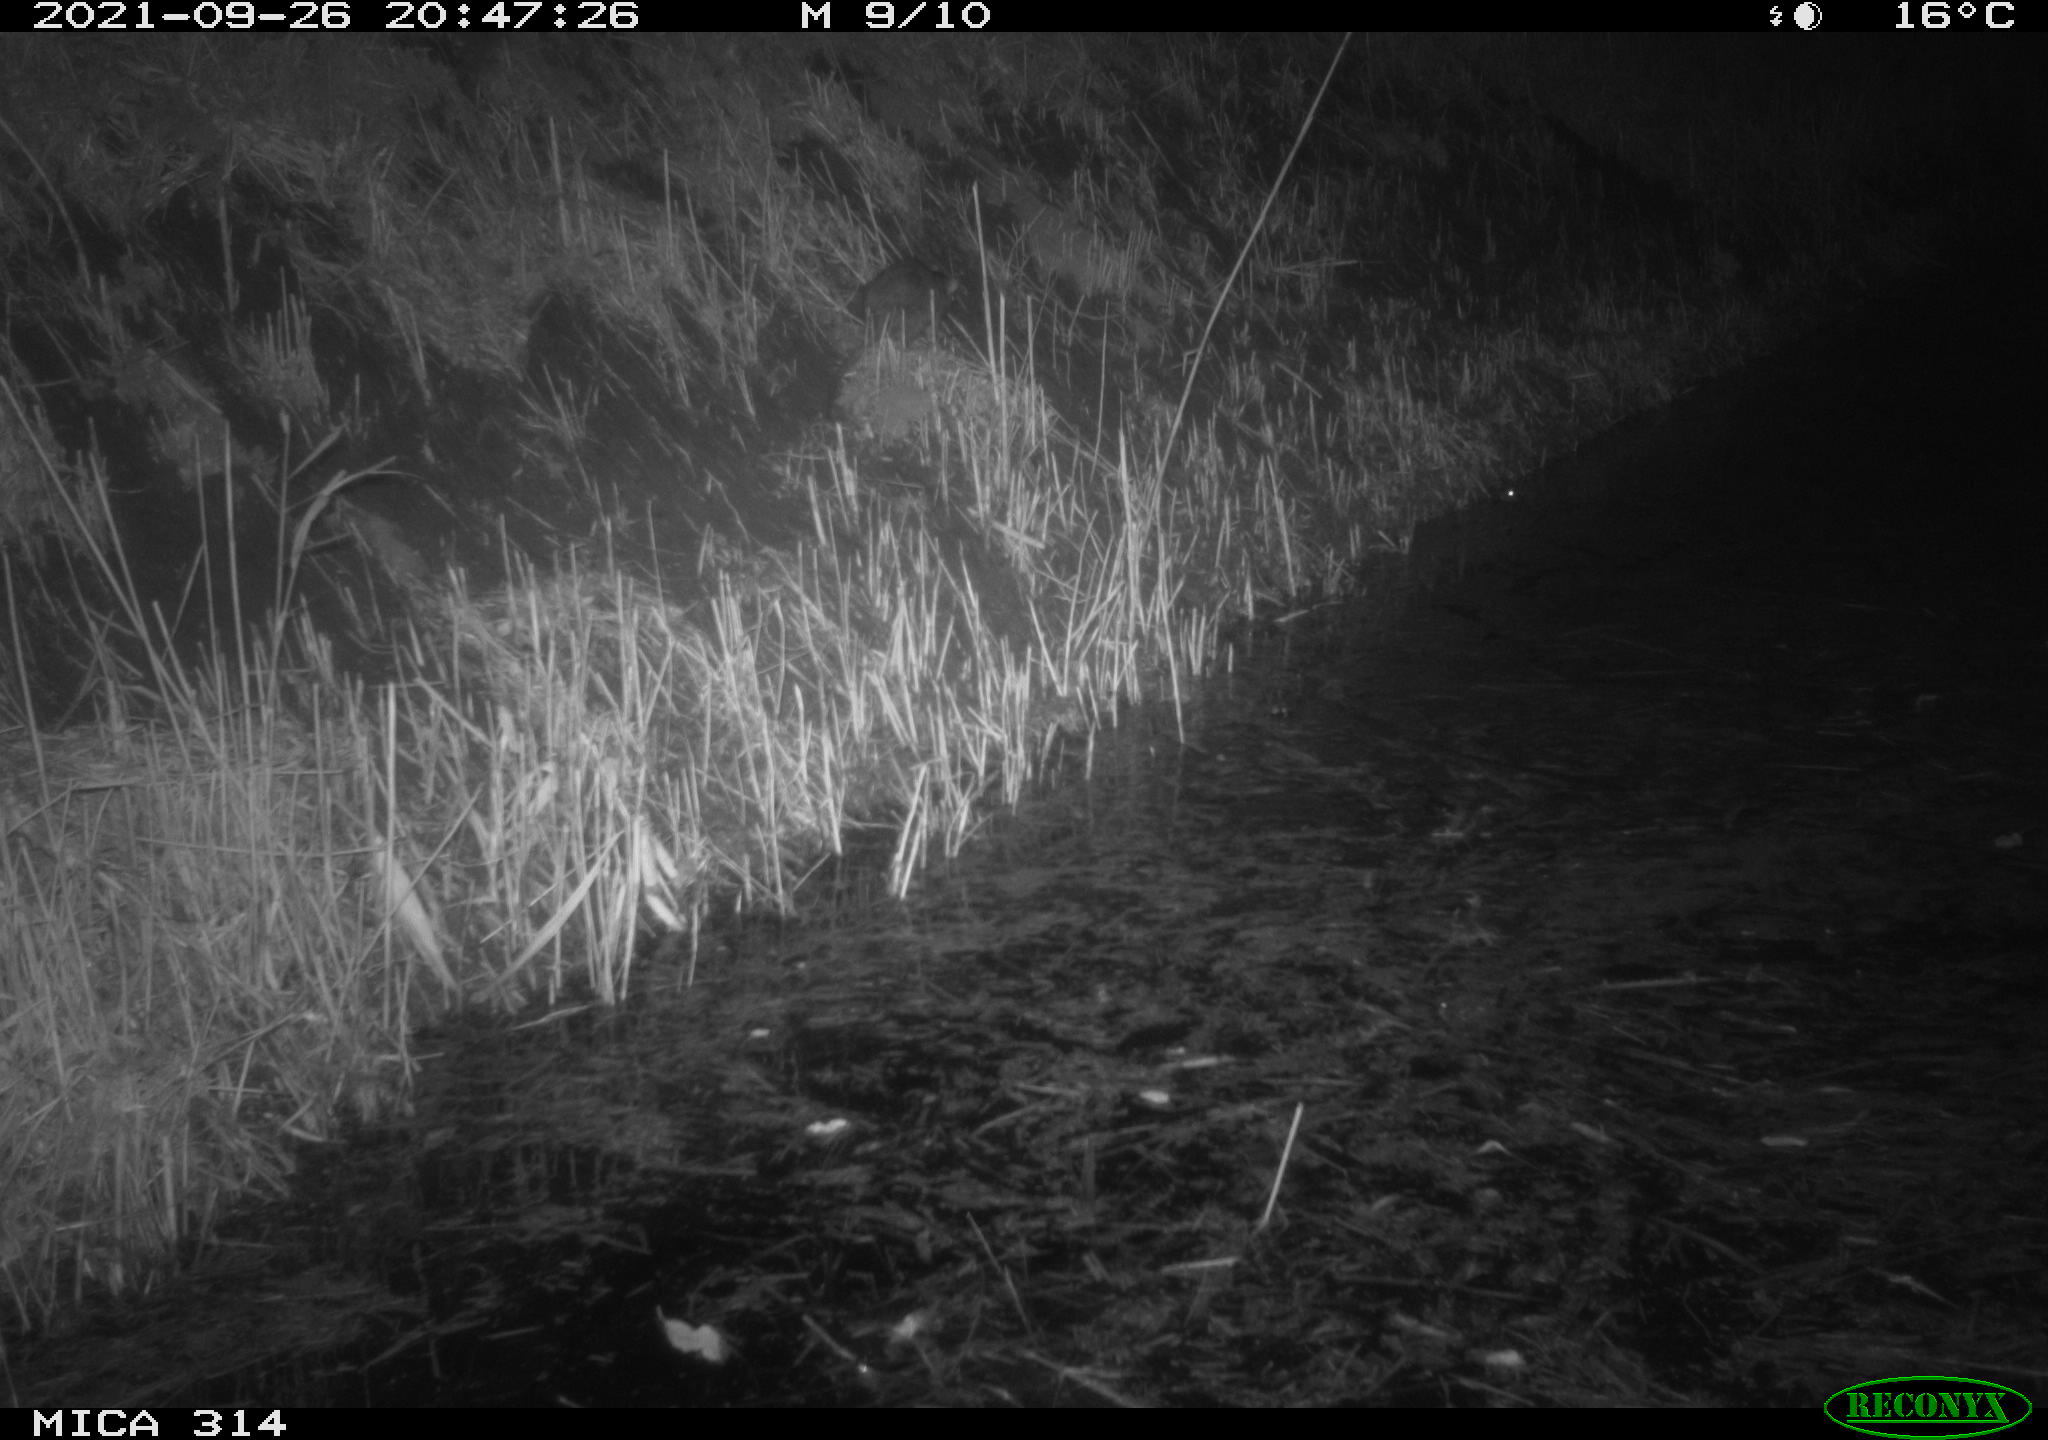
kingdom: Animalia
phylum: Chordata
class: Mammalia
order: Rodentia
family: Muridae
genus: Rattus
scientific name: Rattus norvegicus
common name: Brown rat
